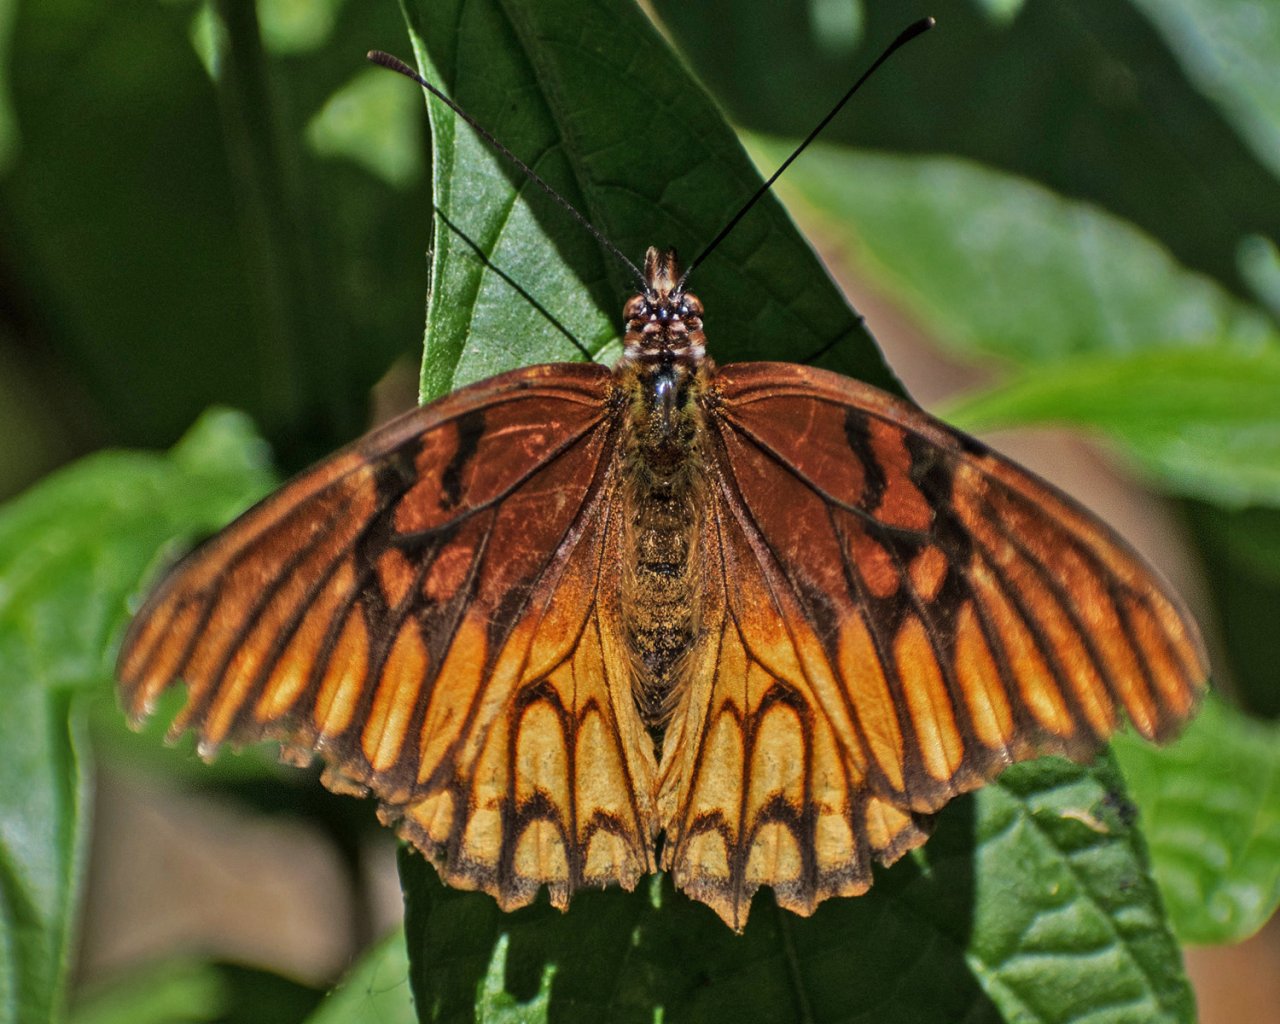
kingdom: Animalia
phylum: Arthropoda
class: Insecta
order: Lepidoptera
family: Nymphalidae
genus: Dione
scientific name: Dione moneta
